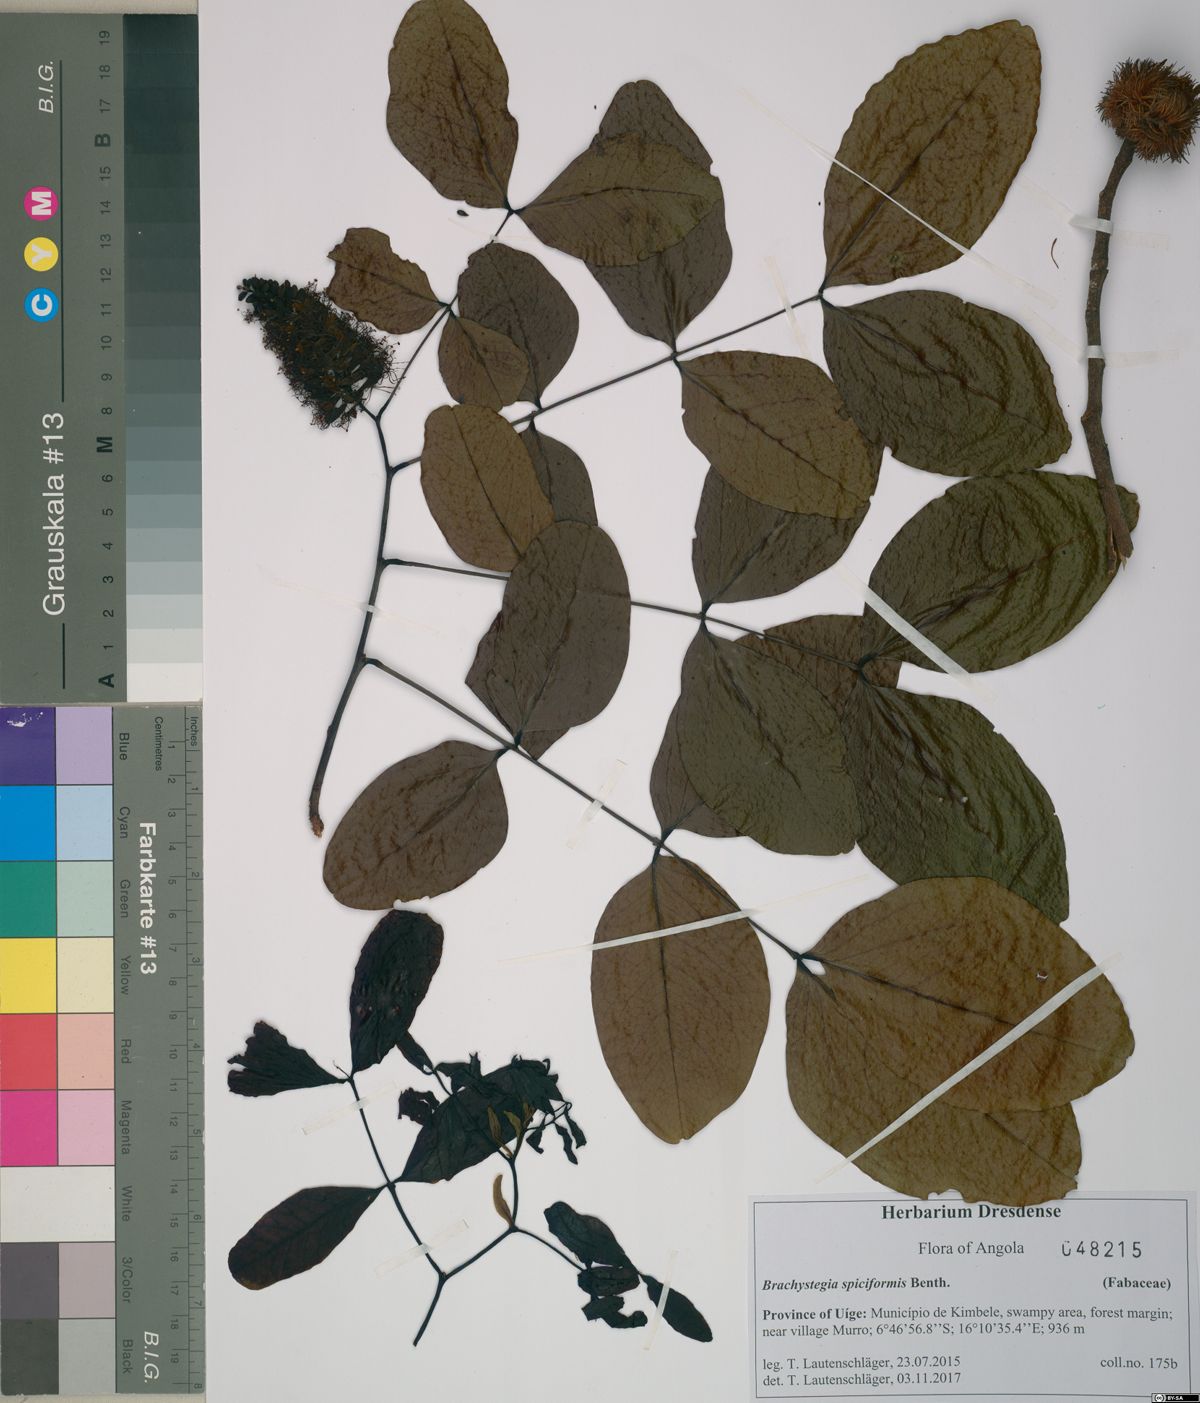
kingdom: Plantae
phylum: Tracheophyta
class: Magnoliopsida
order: Fabales
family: Fabaceae
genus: Brachystegia
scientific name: Brachystegia spiciformis
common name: Zebrawood
